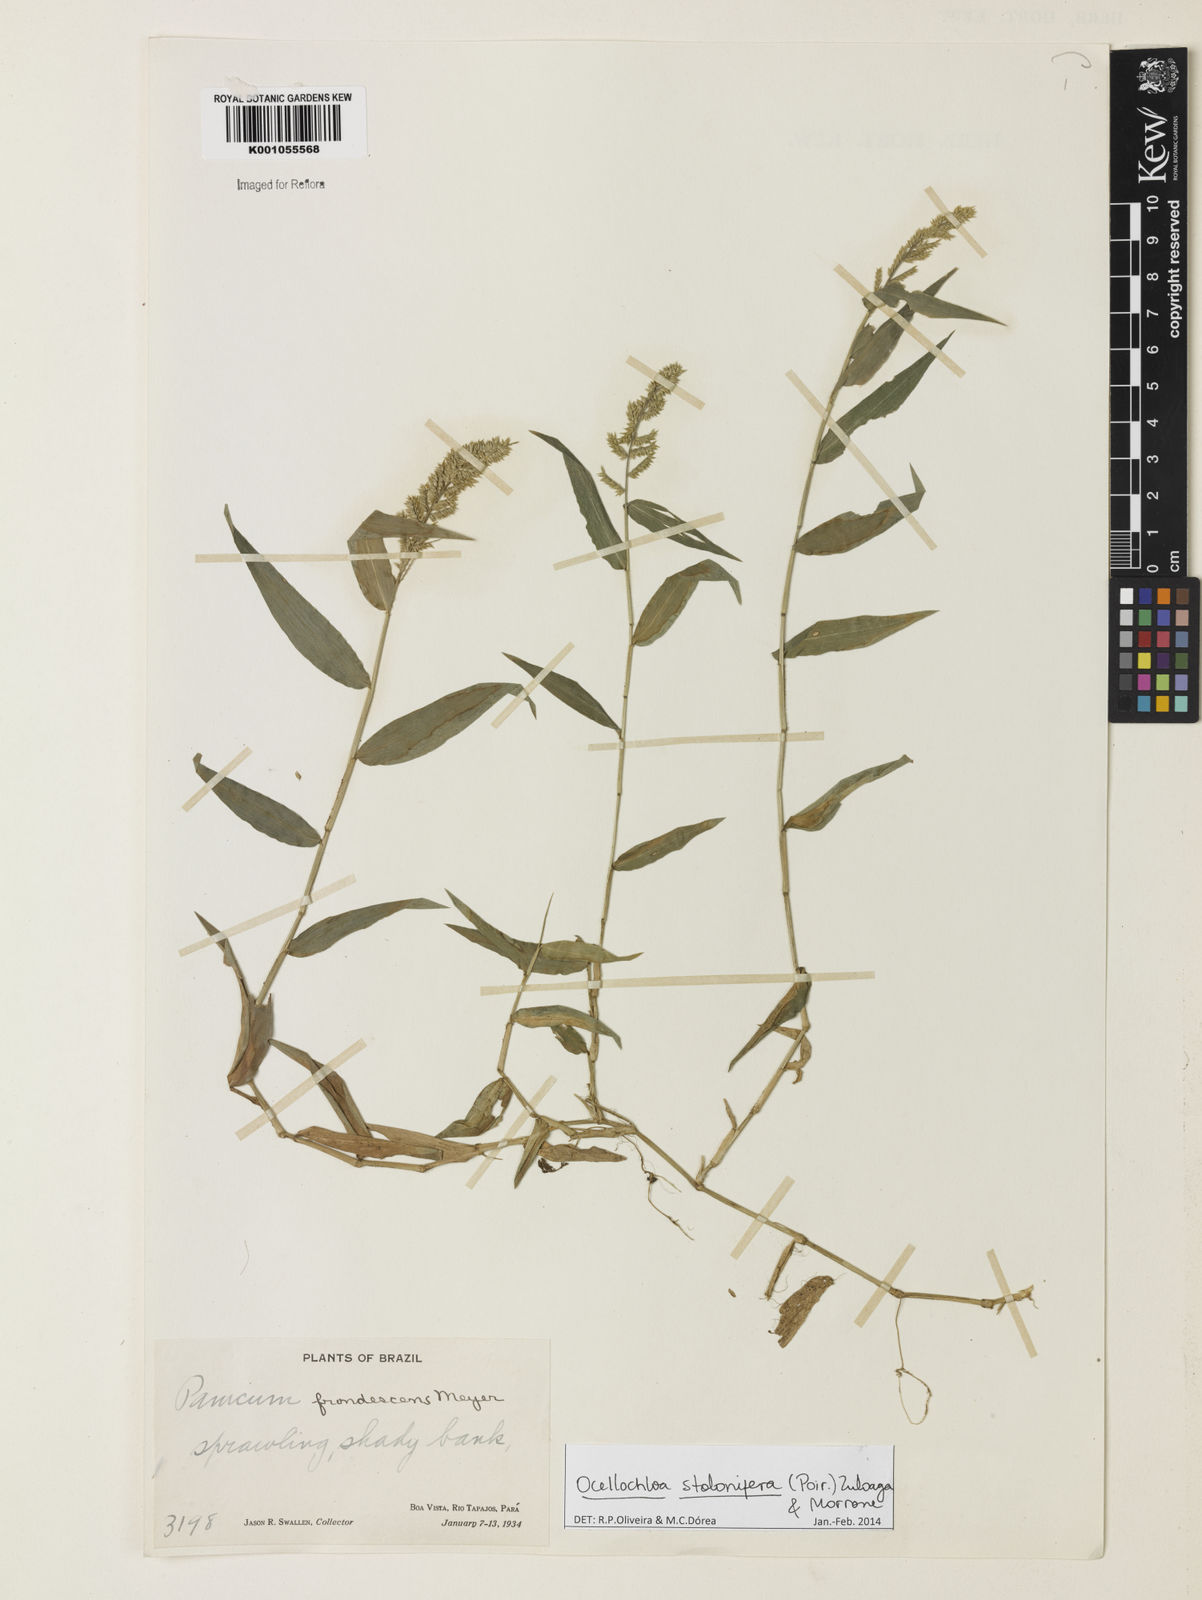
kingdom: Plantae
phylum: Tracheophyta
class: Liliopsida
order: Poales
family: Poaceae
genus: Ocellochloa
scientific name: Ocellochloa stolonifera
